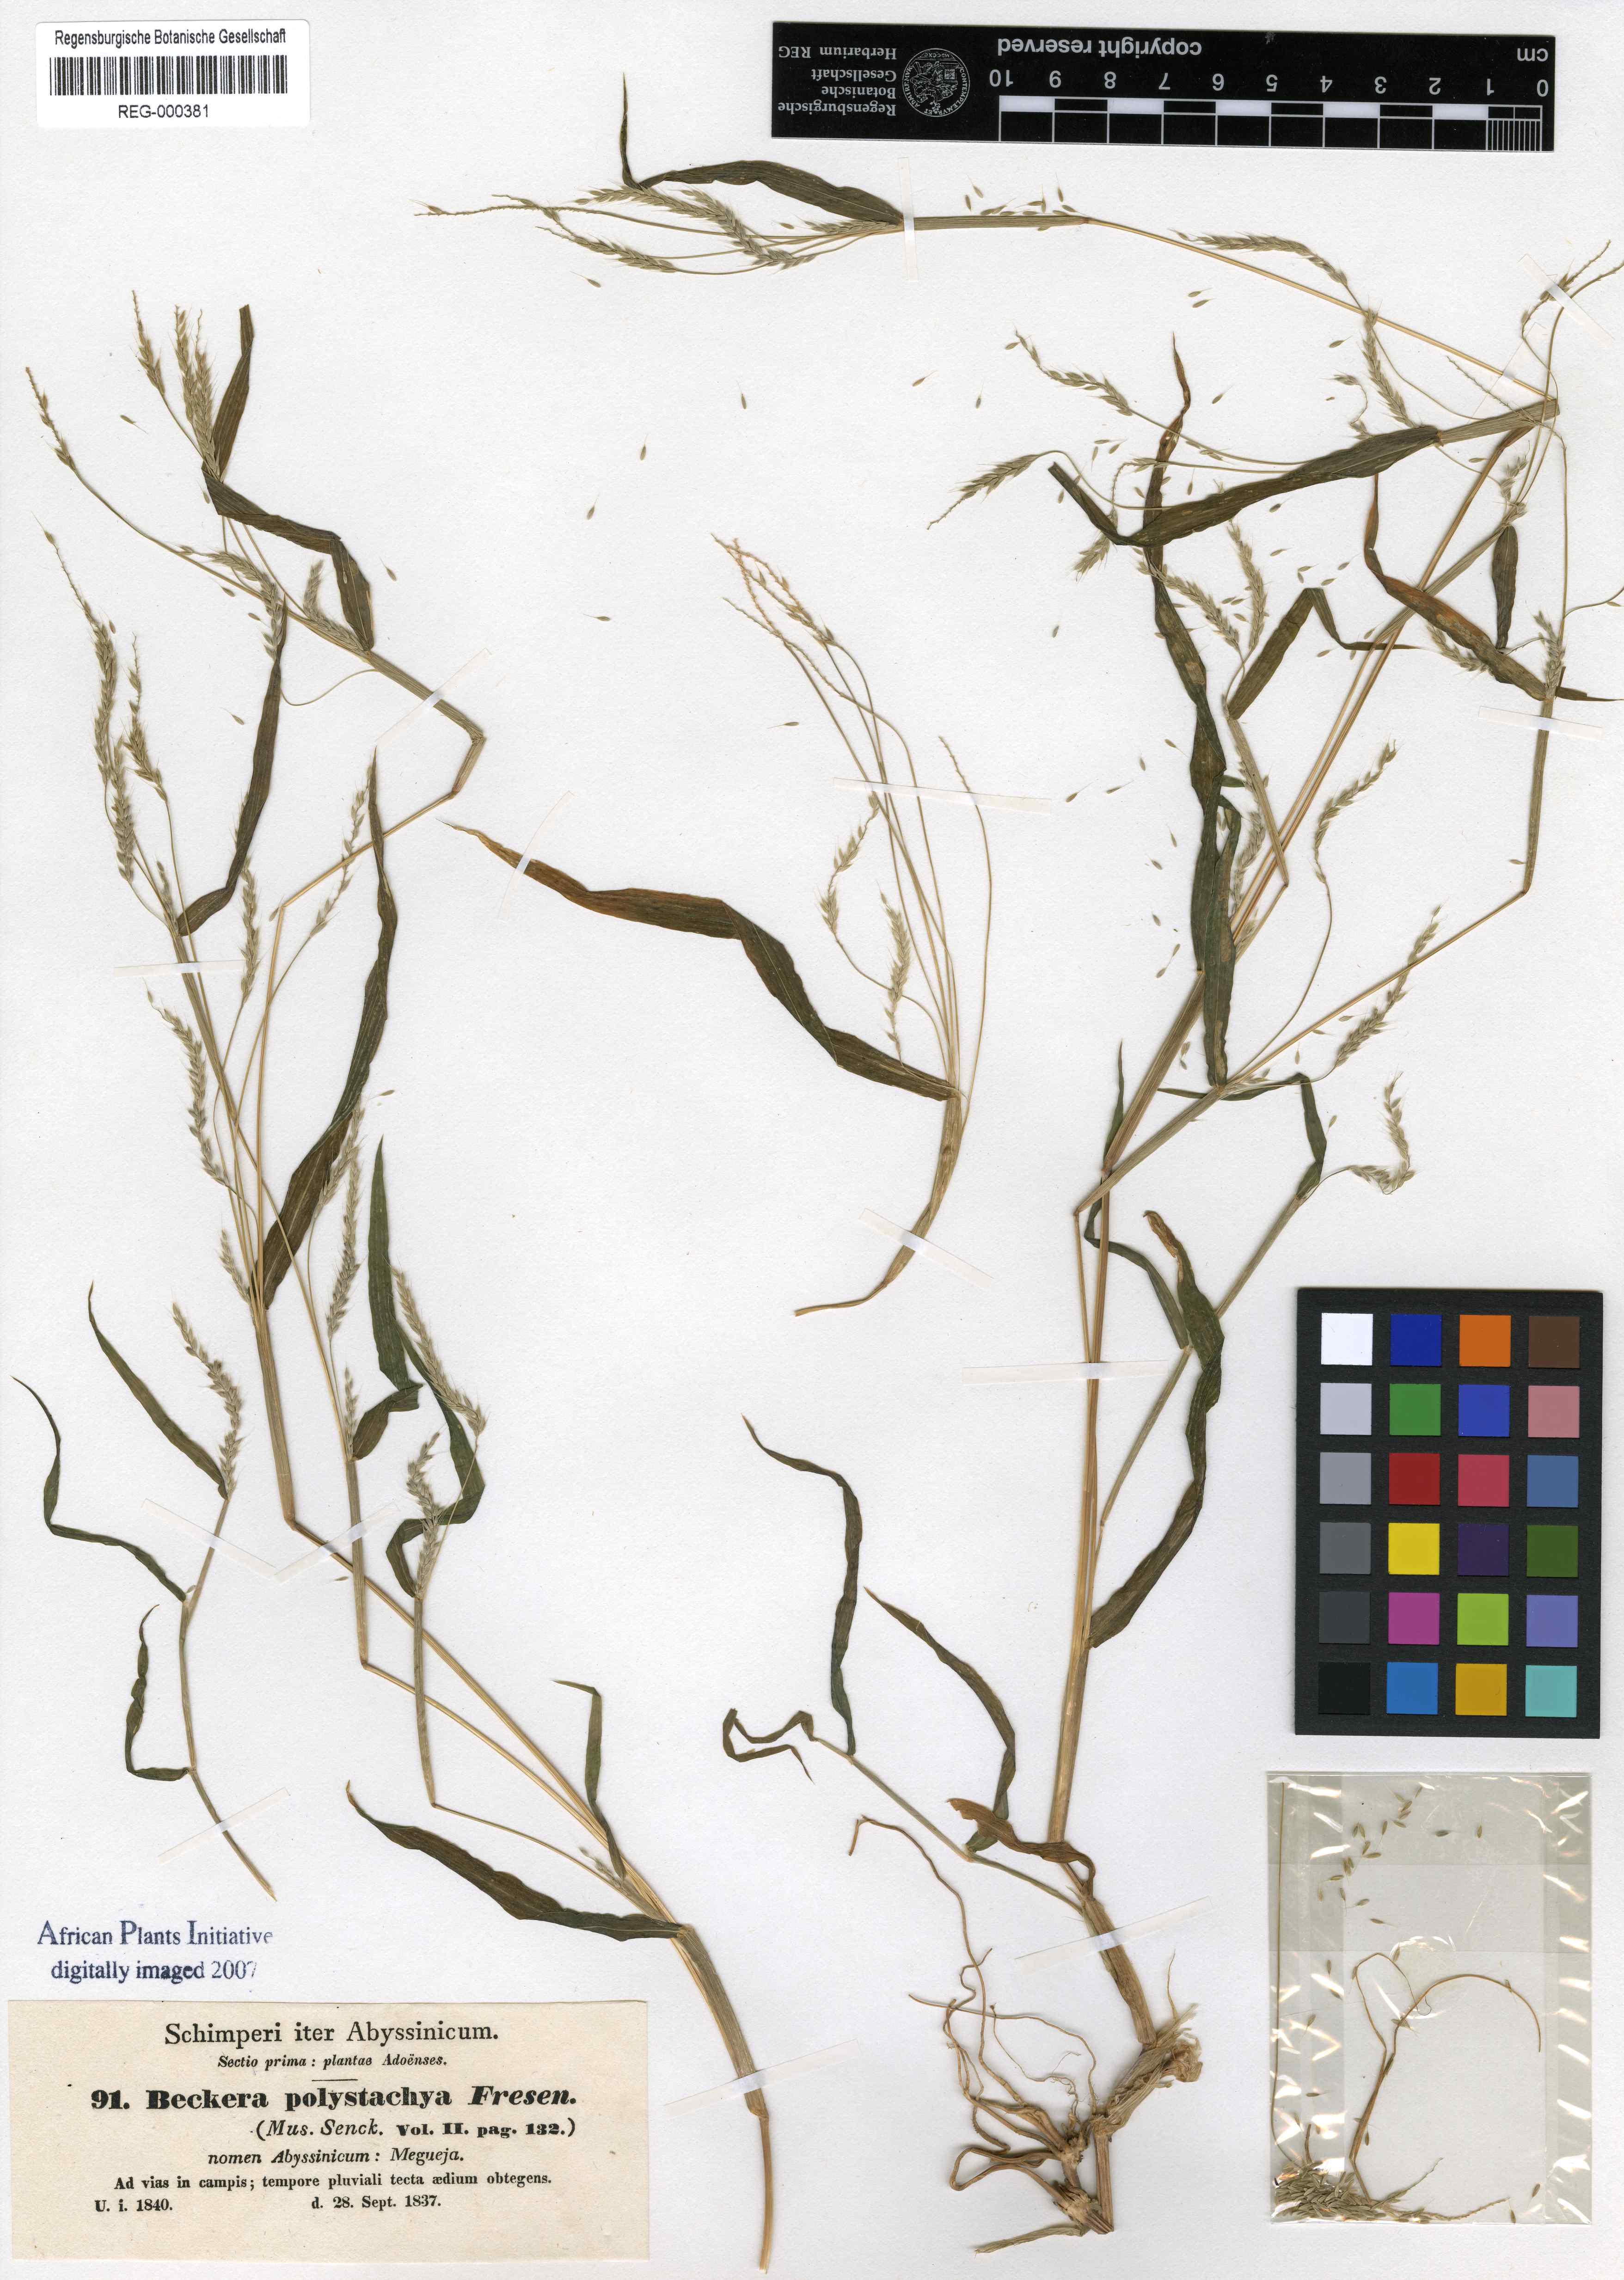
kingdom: Plantae
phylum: Tracheophyta
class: Liliopsida
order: Poales
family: Poaceae
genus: Snowdenia
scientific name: Snowdenia polystachya
